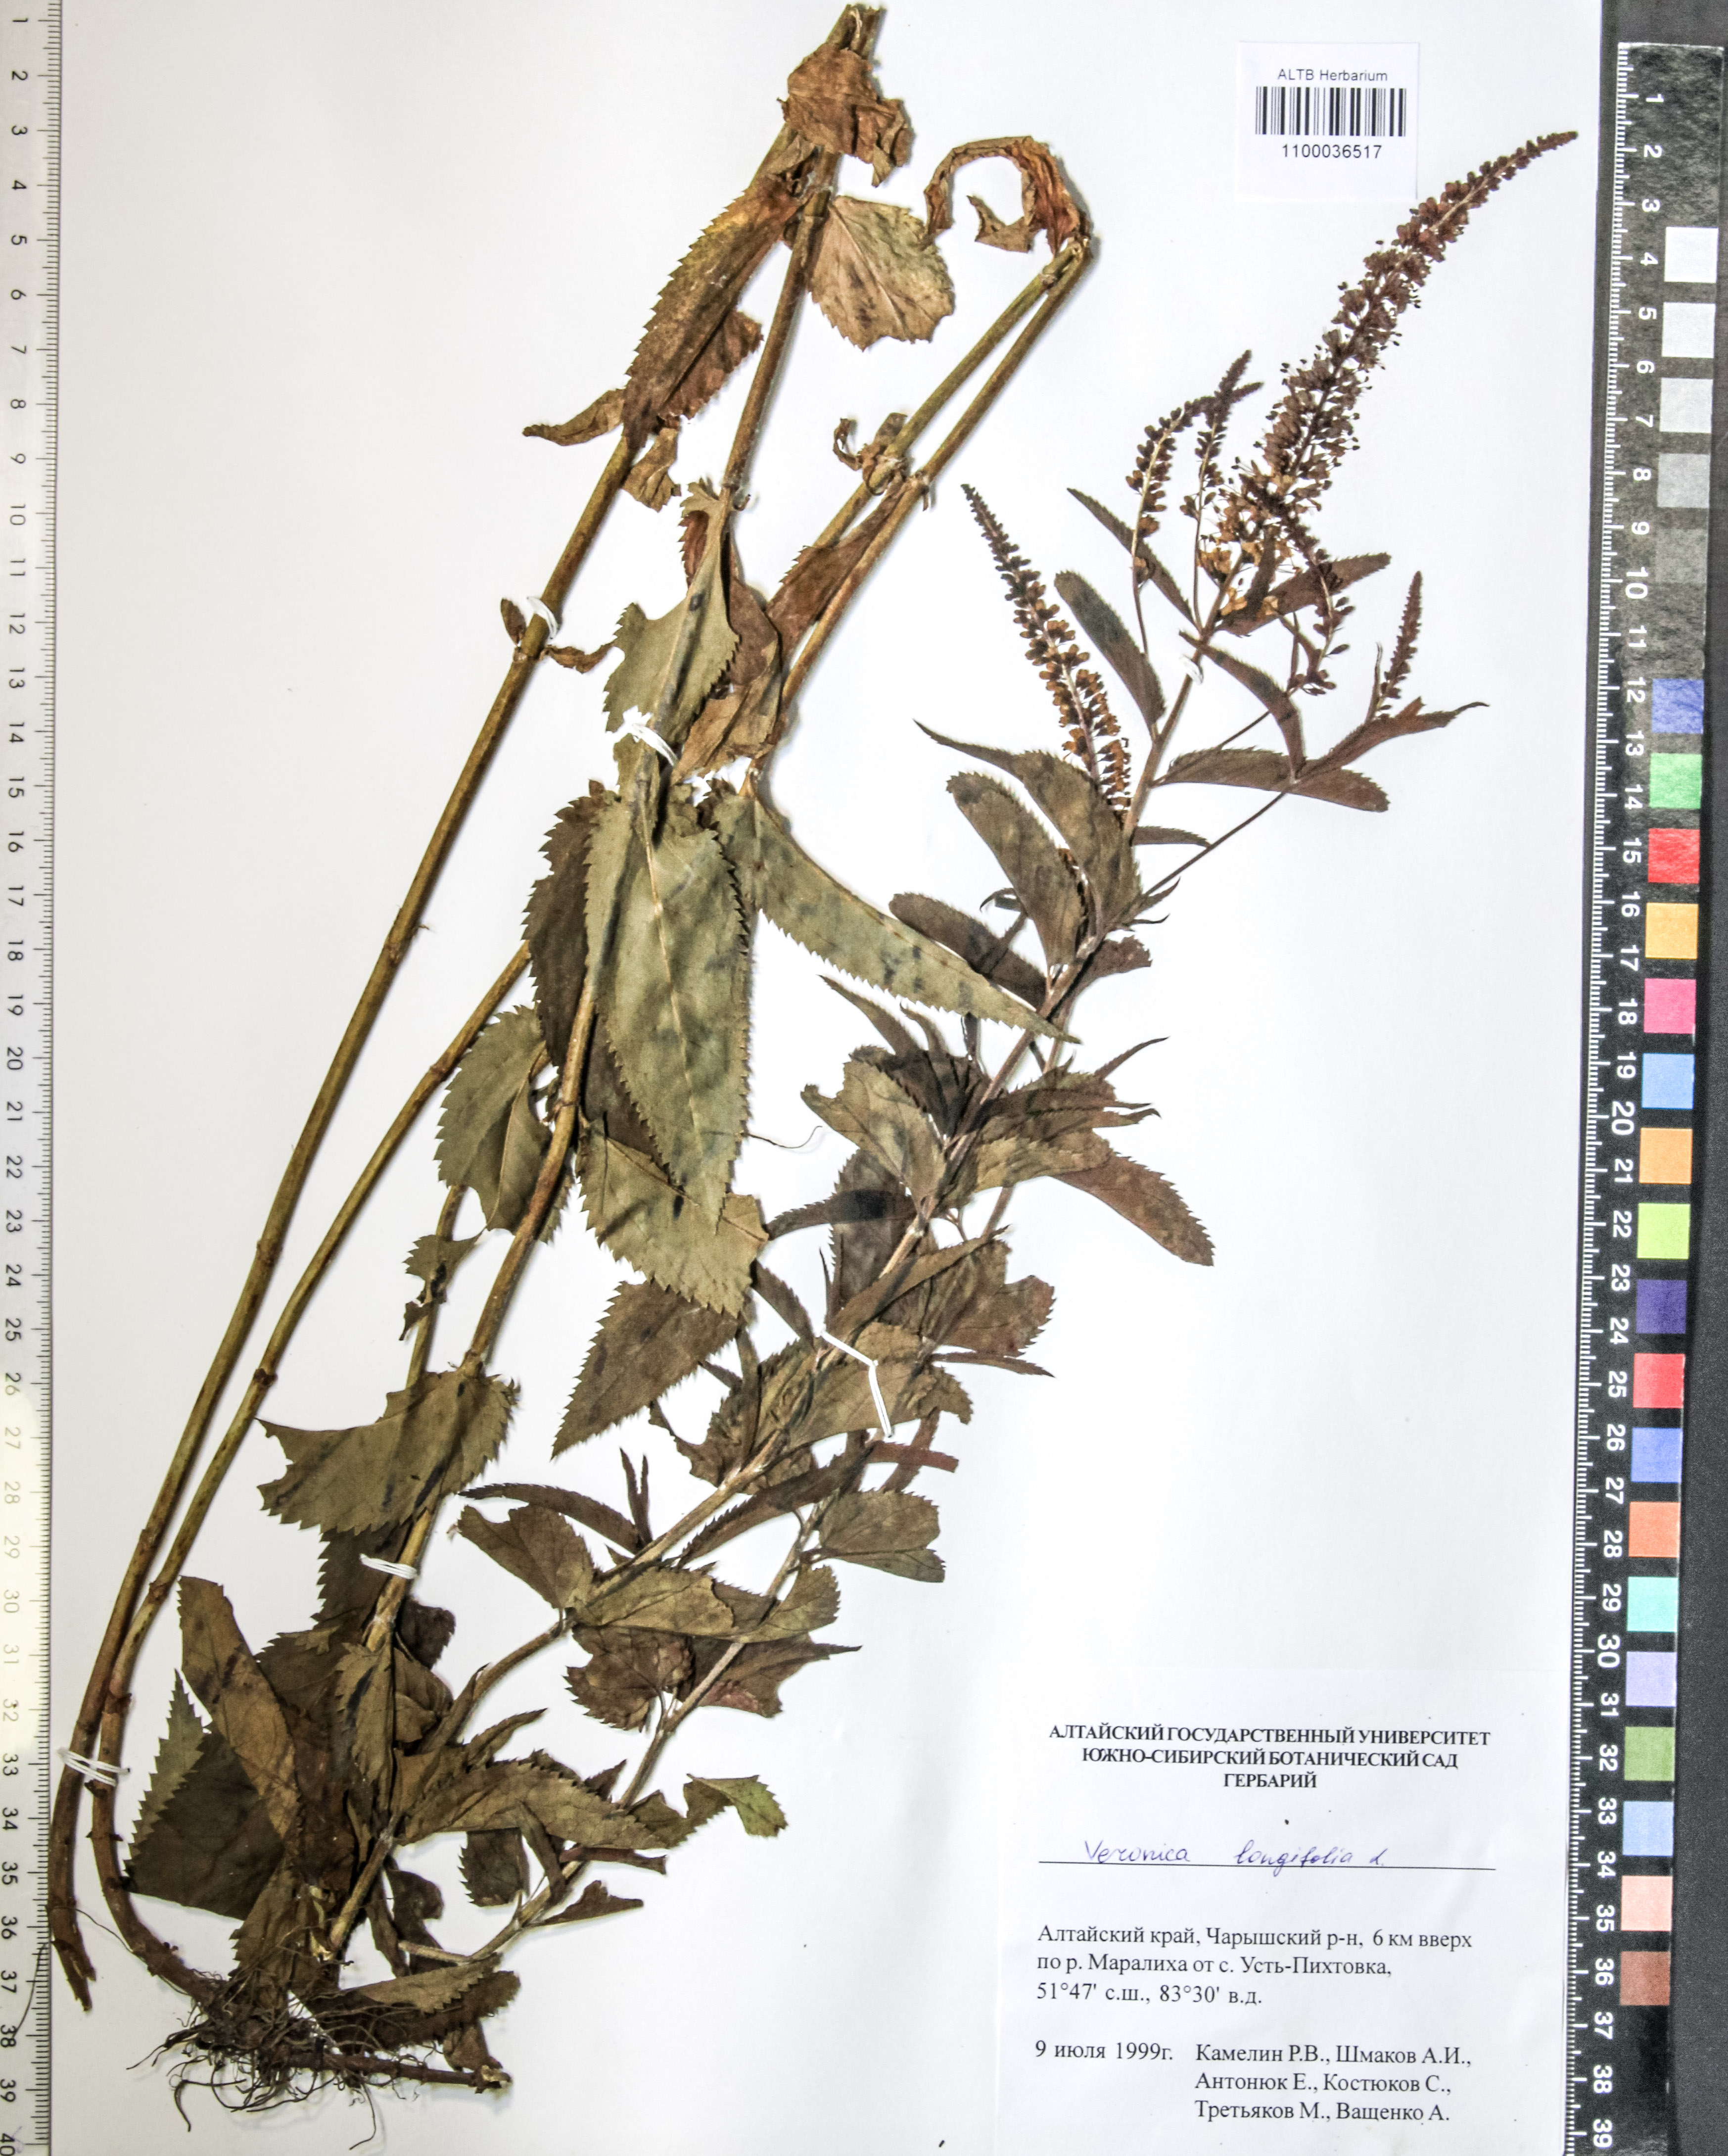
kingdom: Plantae
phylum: Tracheophyta
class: Magnoliopsida
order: Lamiales
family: Plantaginaceae
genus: Veronica
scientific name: Veronica longifolia
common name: Garden speedwell
